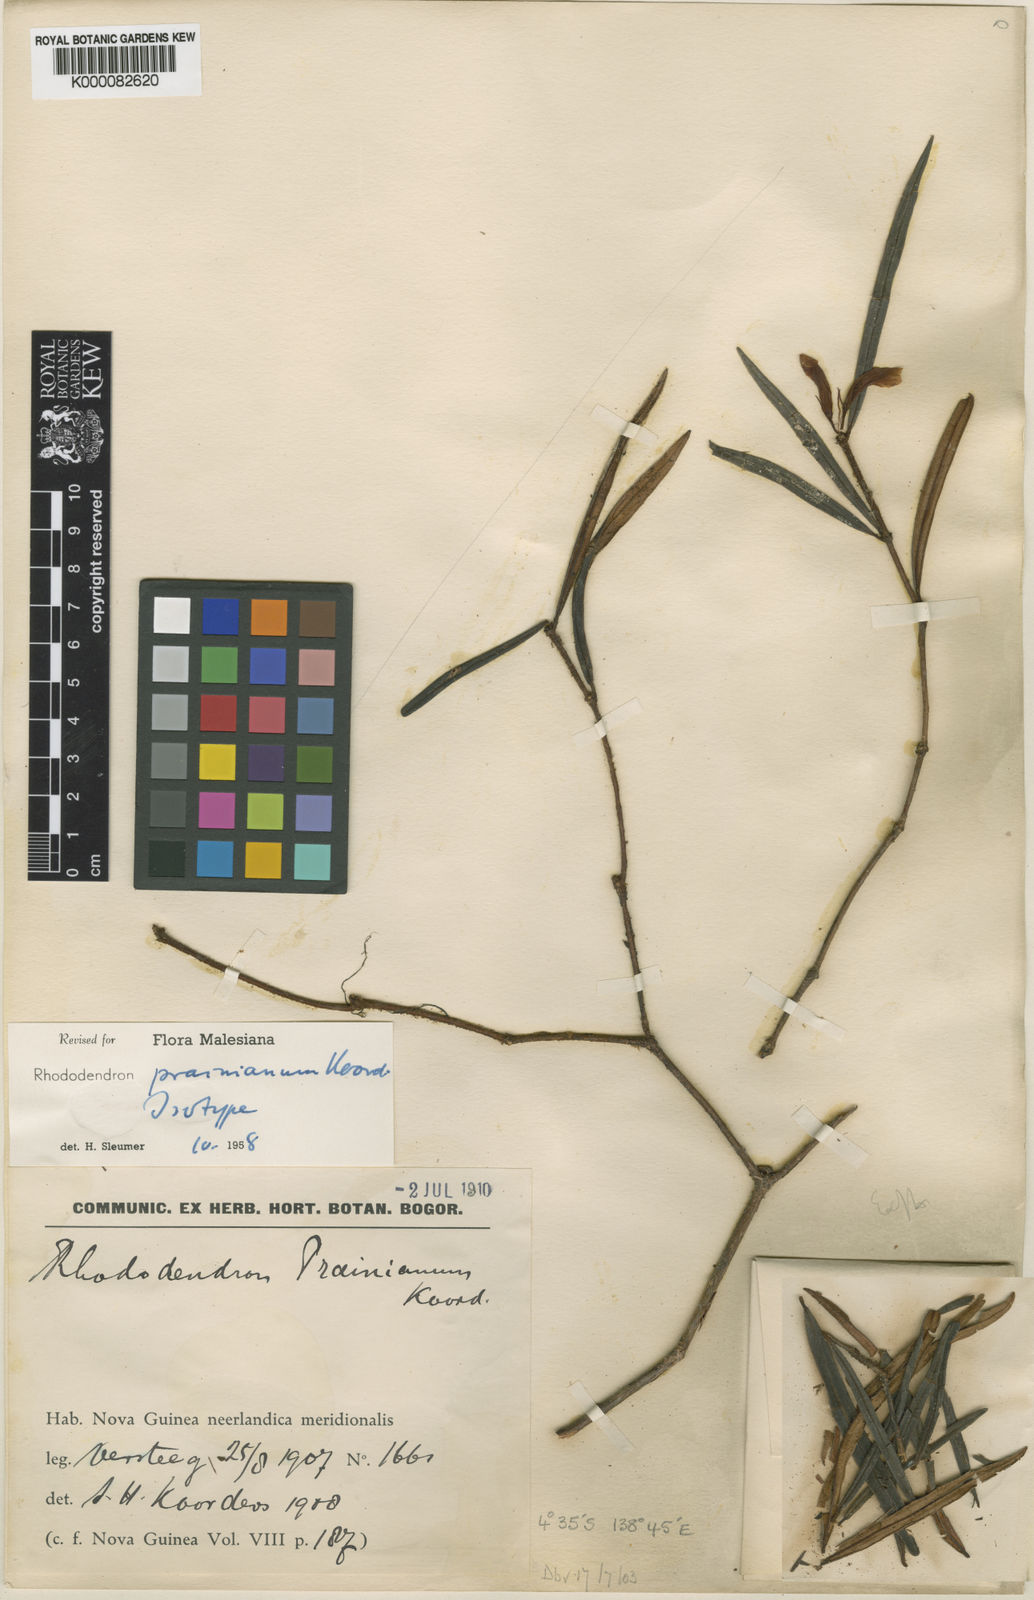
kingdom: Plantae
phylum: Tracheophyta
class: Magnoliopsida
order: Ericales
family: Ericaceae
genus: Rhododendron
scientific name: Rhododendron prainianum
